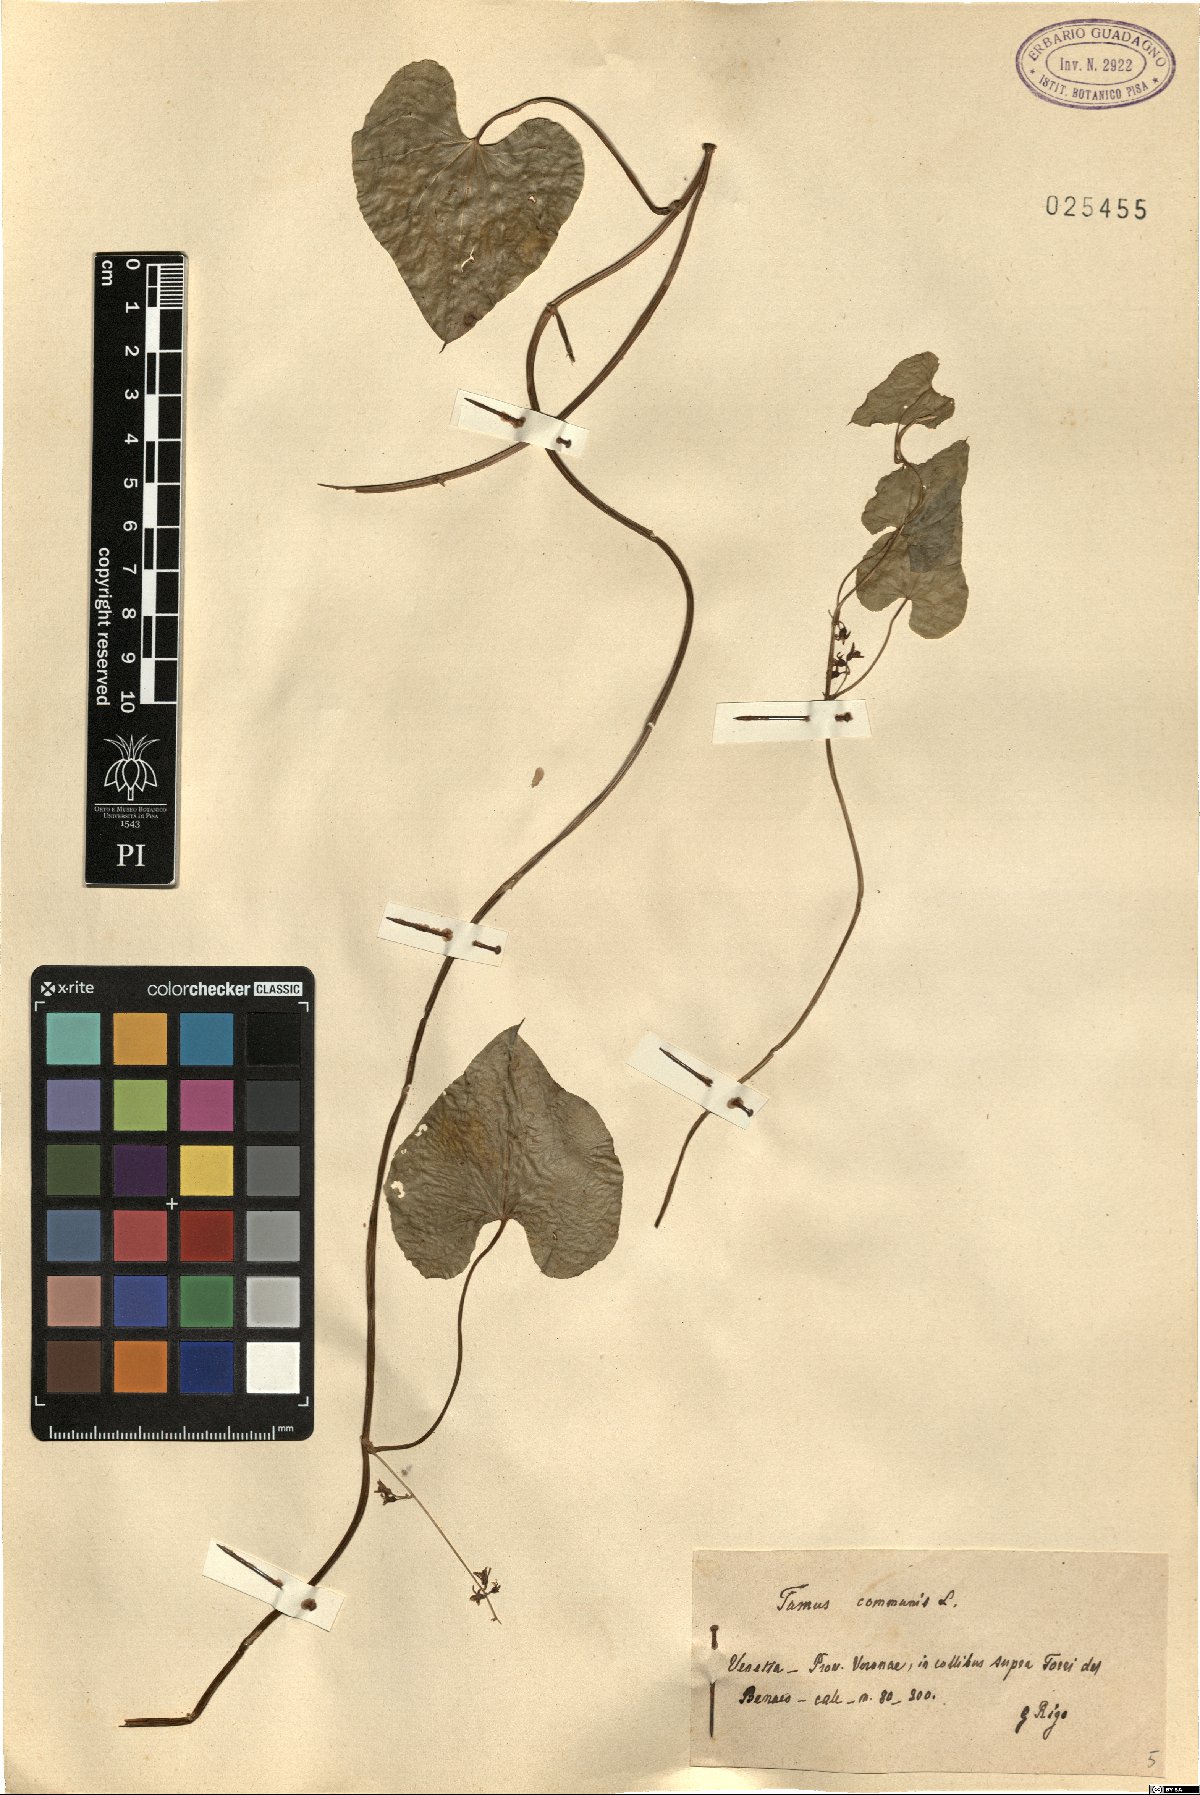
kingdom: Plantae
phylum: Tracheophyta
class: Liliopsida
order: Dioscoreales
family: Dioscoreaceae
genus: Dioscorea
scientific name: Dioscorea communis
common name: Black-bindweed
